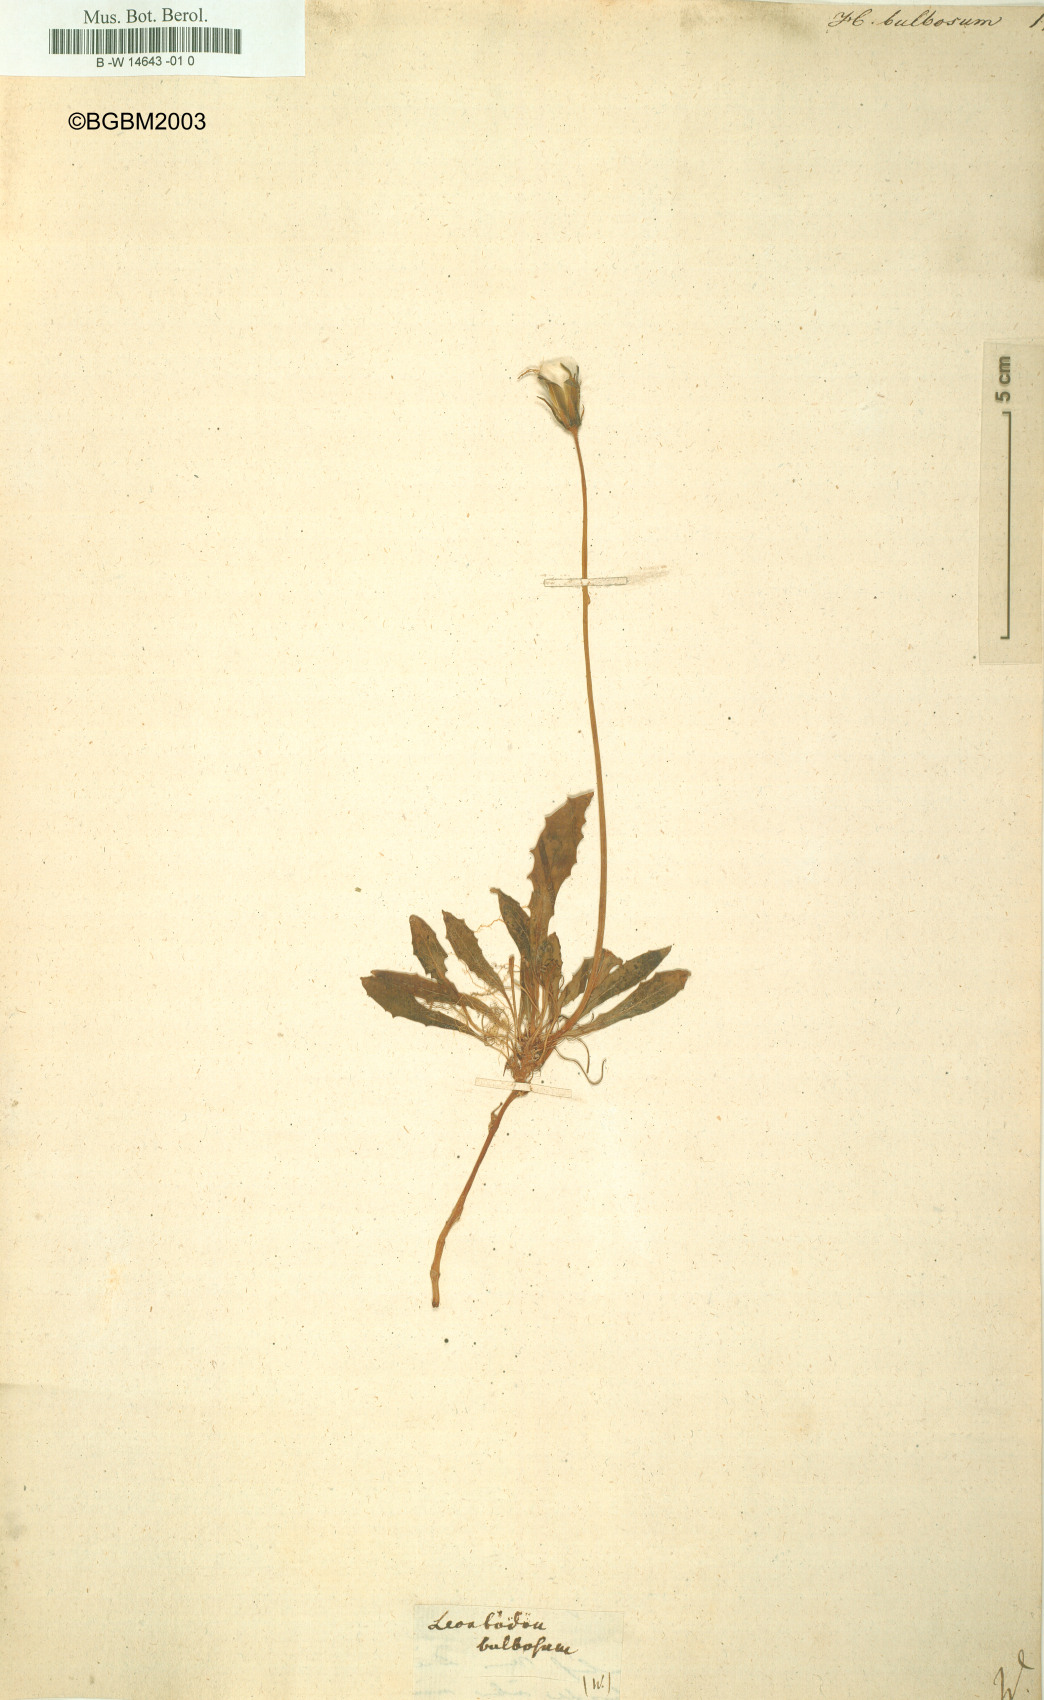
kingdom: Plantae
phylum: Tracheophyta
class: Magnoliopsida
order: Asterales
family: Asteraceae
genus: Aetheorhiza
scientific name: Aetheorhiza bulbosa
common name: Tuberous hawk's-beard
